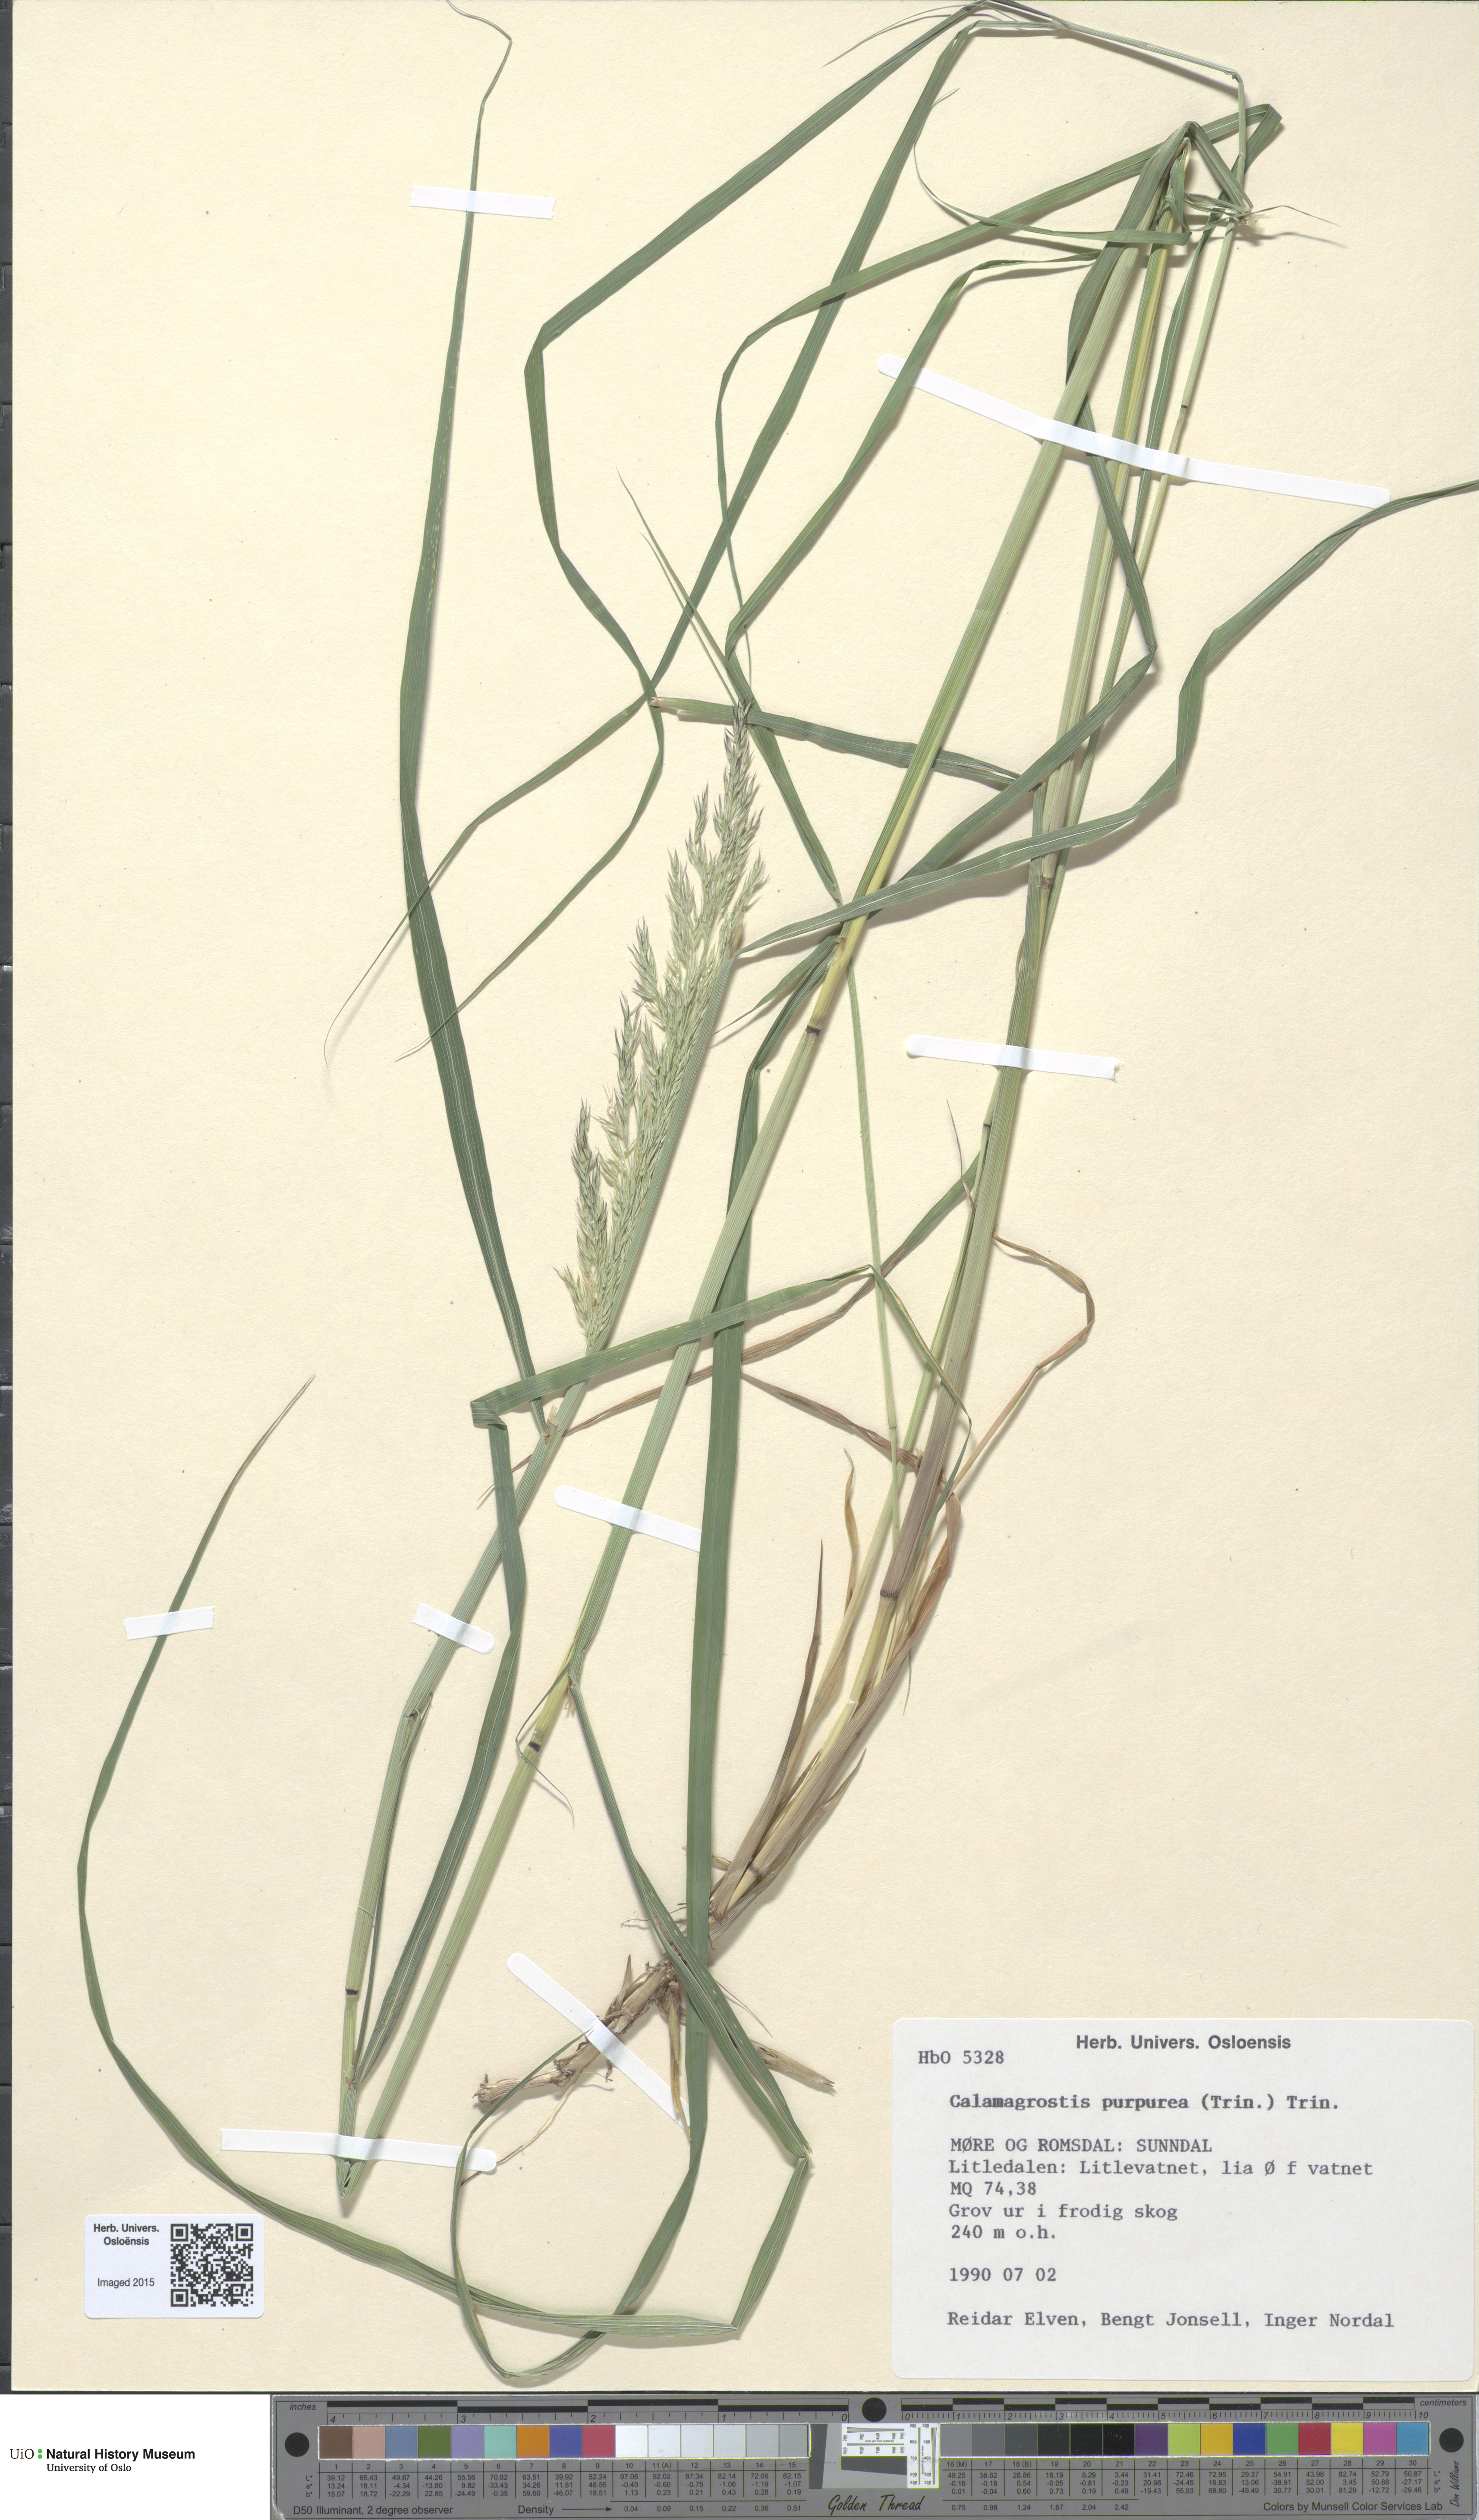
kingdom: Plantae
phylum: Tracheophyta
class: Liliopsida
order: Poales
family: Poaceae
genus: Calamagrostis
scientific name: Calamagrostis purpurea
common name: Scandinavian small-reed
